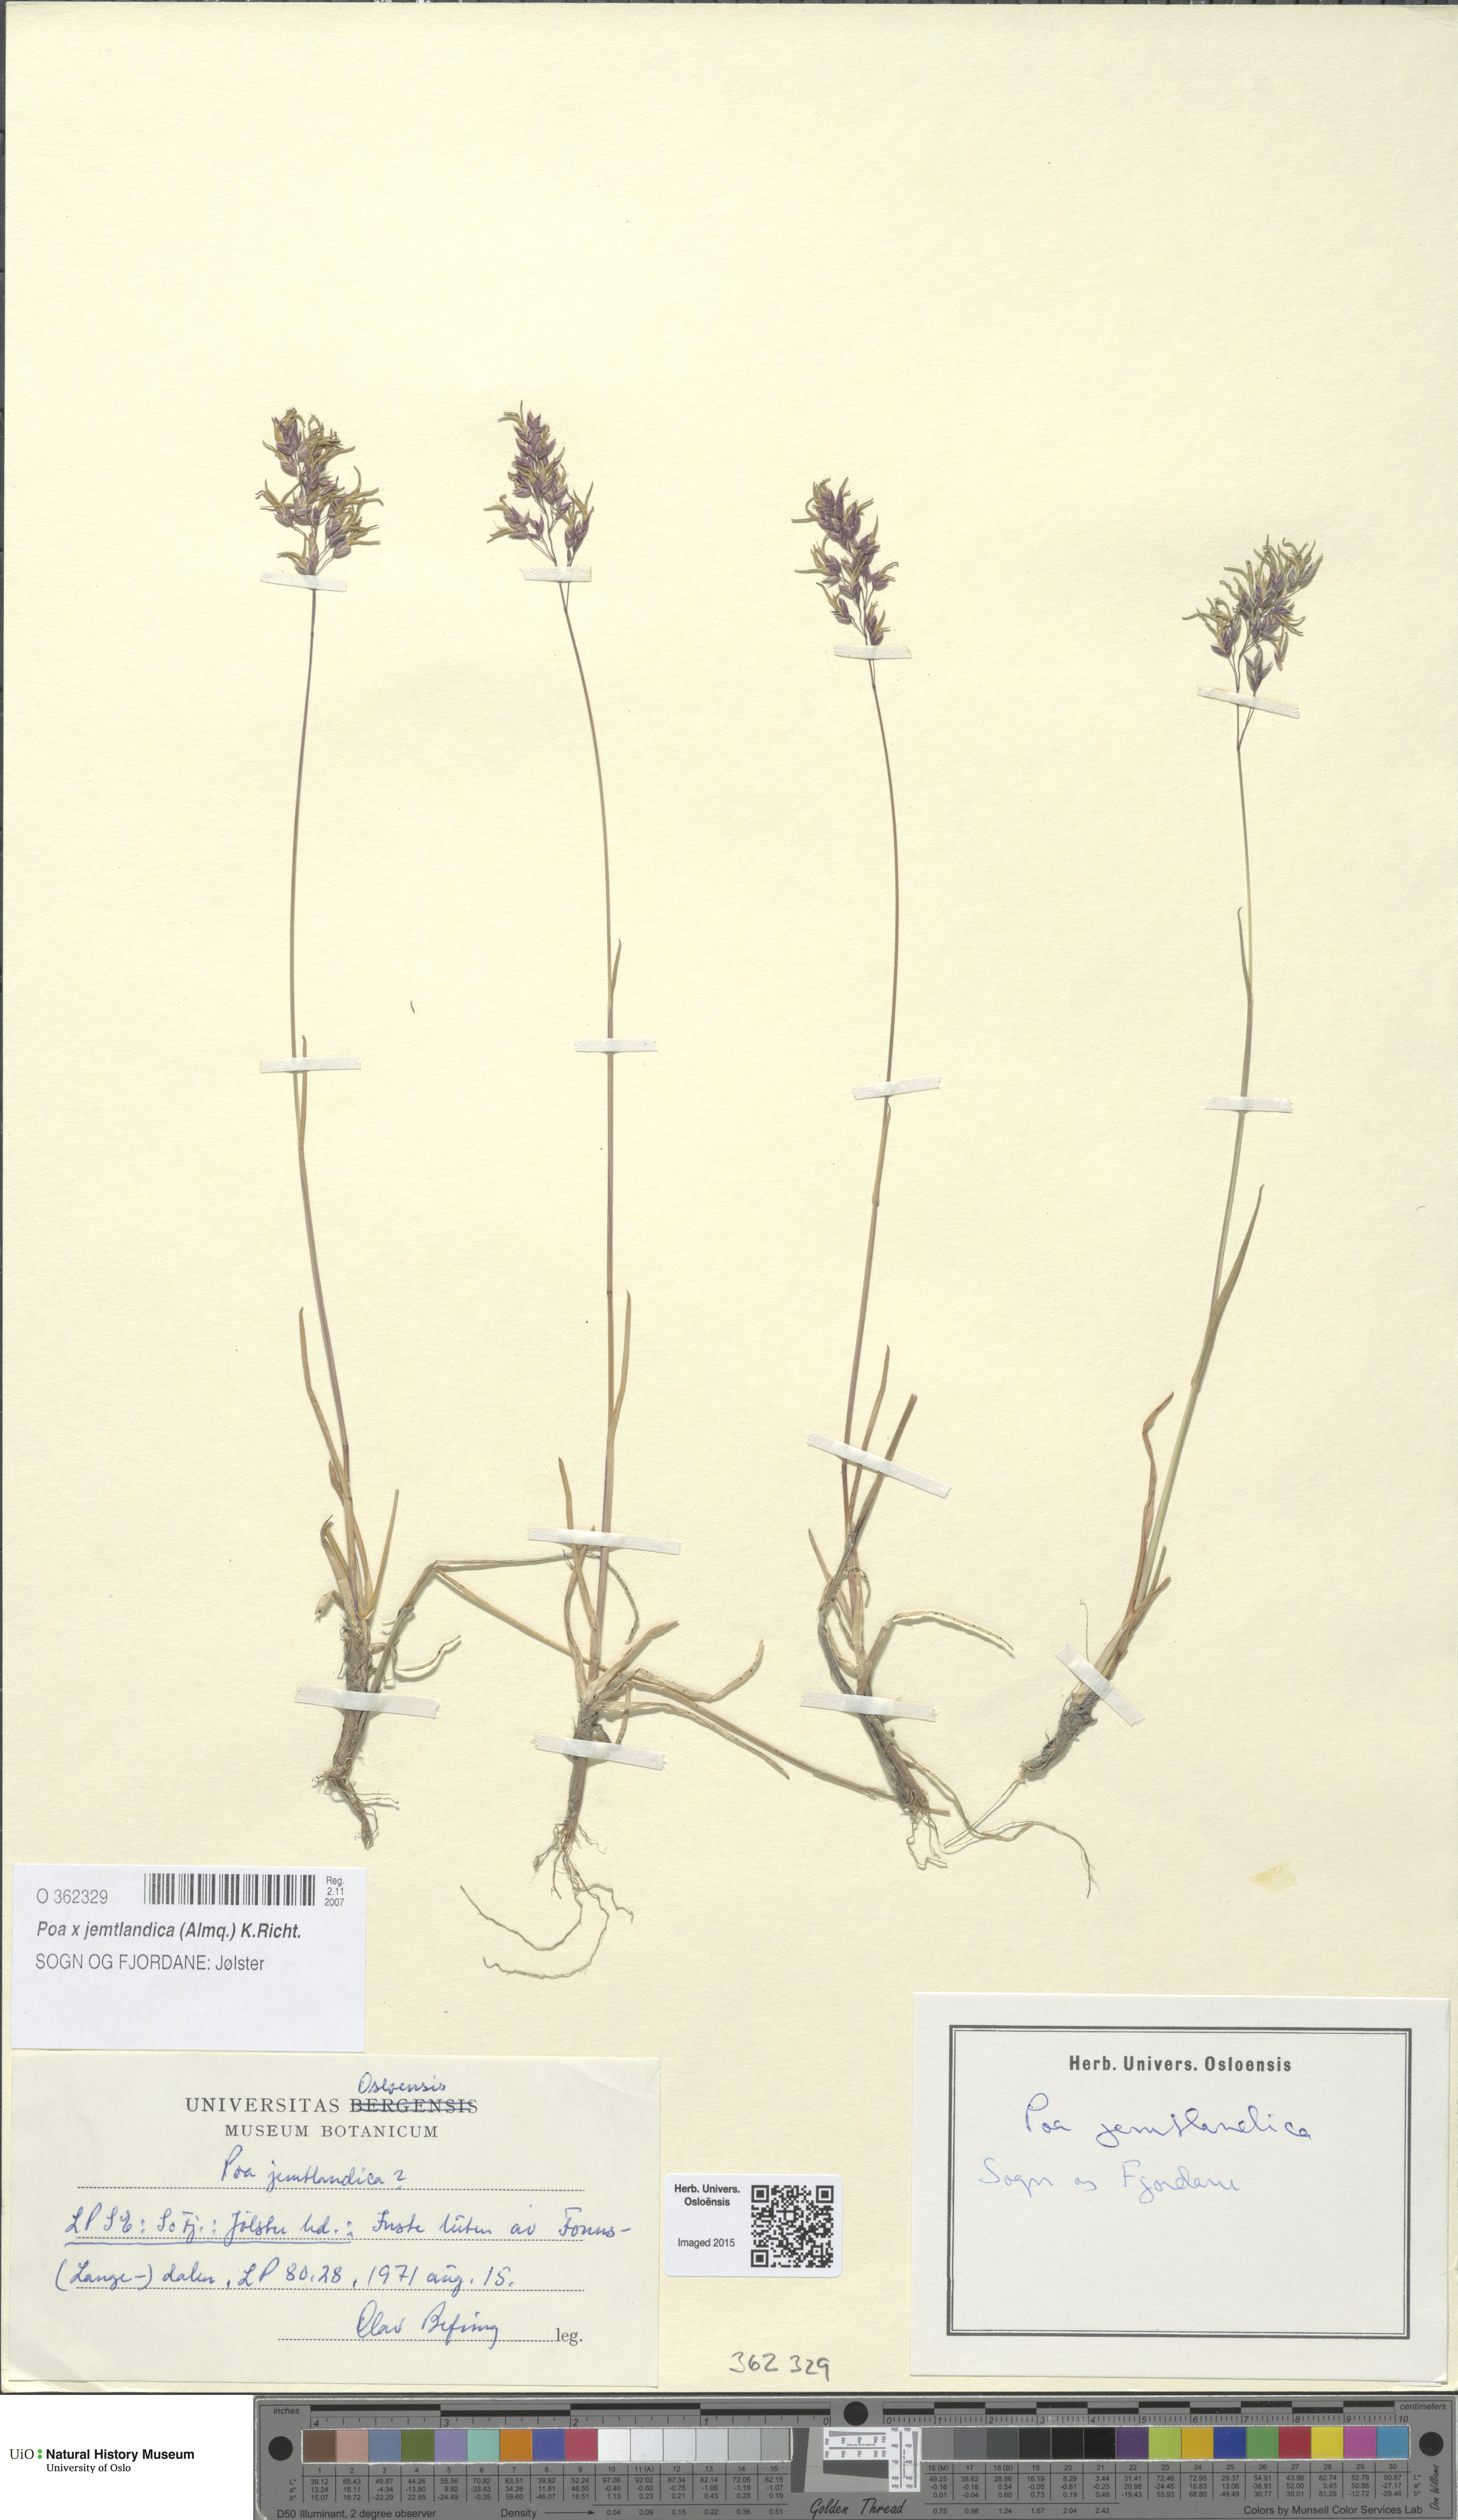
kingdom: Plantae
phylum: Tracheophyta
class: Liliopsida
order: Poales
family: Poaceae
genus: Poa
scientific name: Poa jemtlandica
